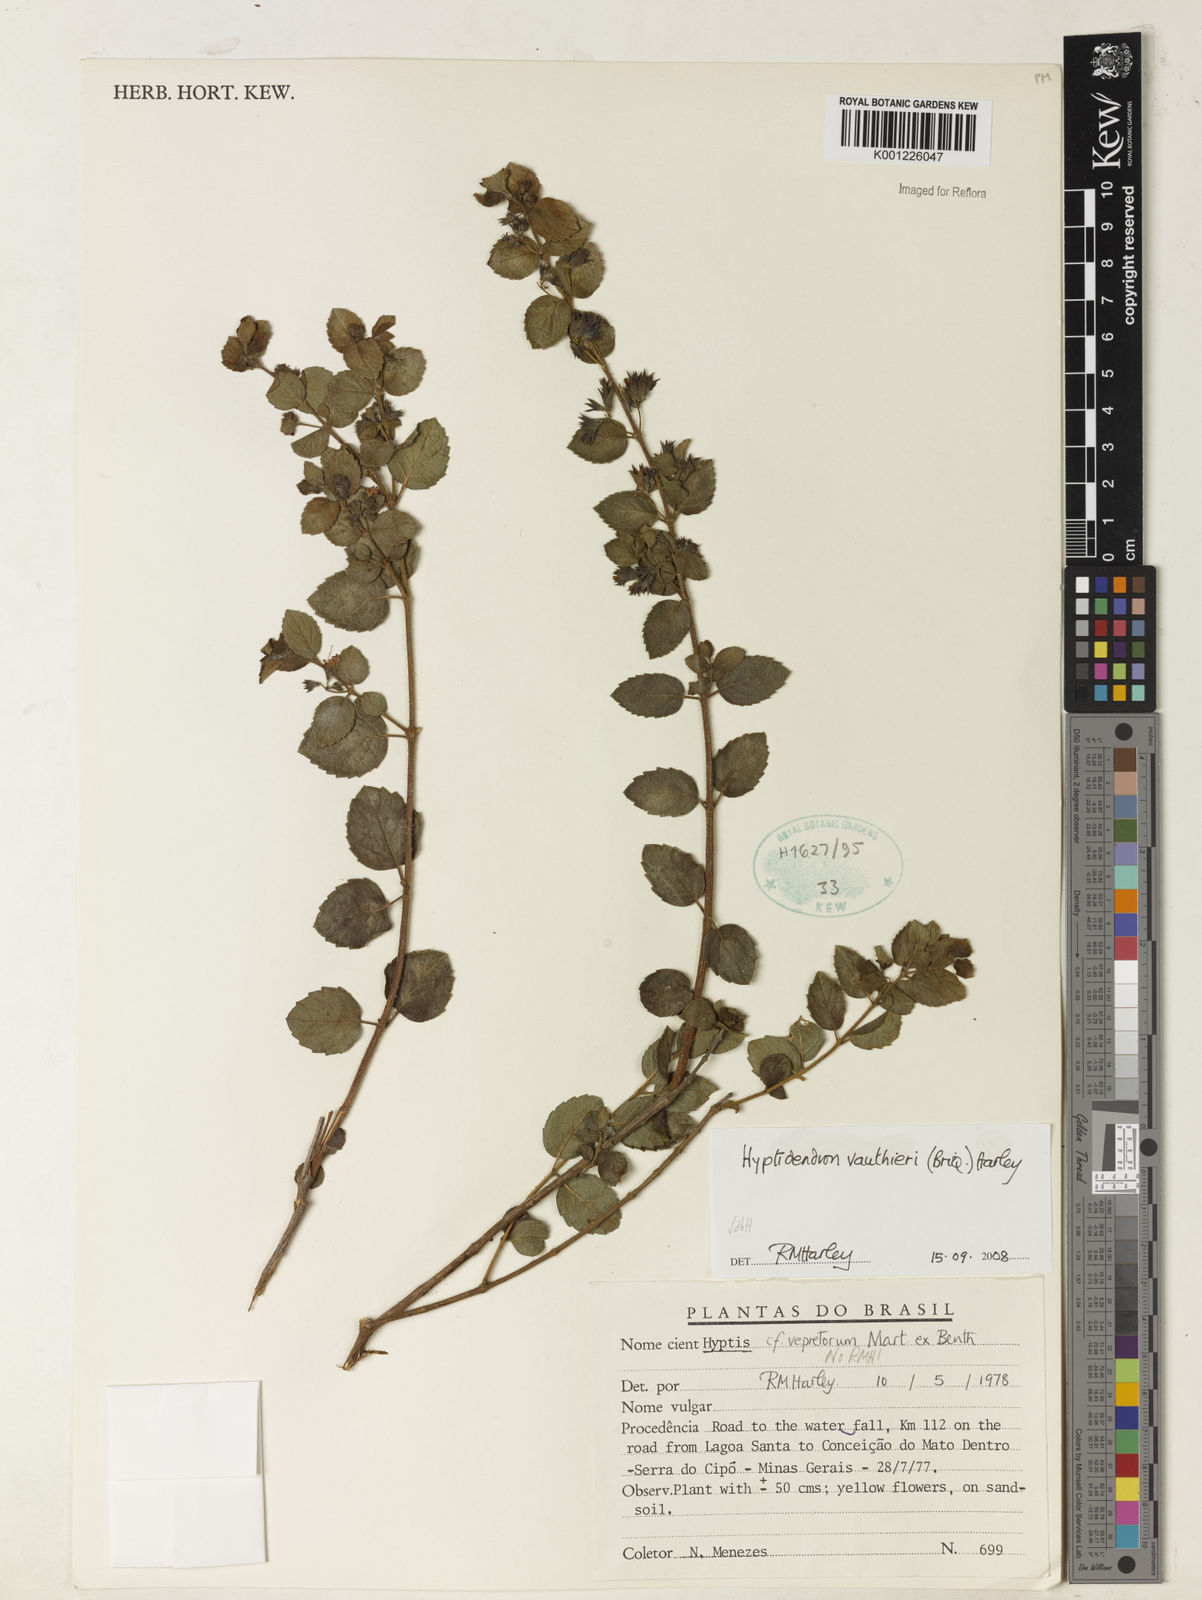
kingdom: Plantae
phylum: Tracheophyta
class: Magnoliopsida
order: Lamiales
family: Lamiaceae
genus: Hyptidendron
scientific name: Hyptidendron vauthieri
